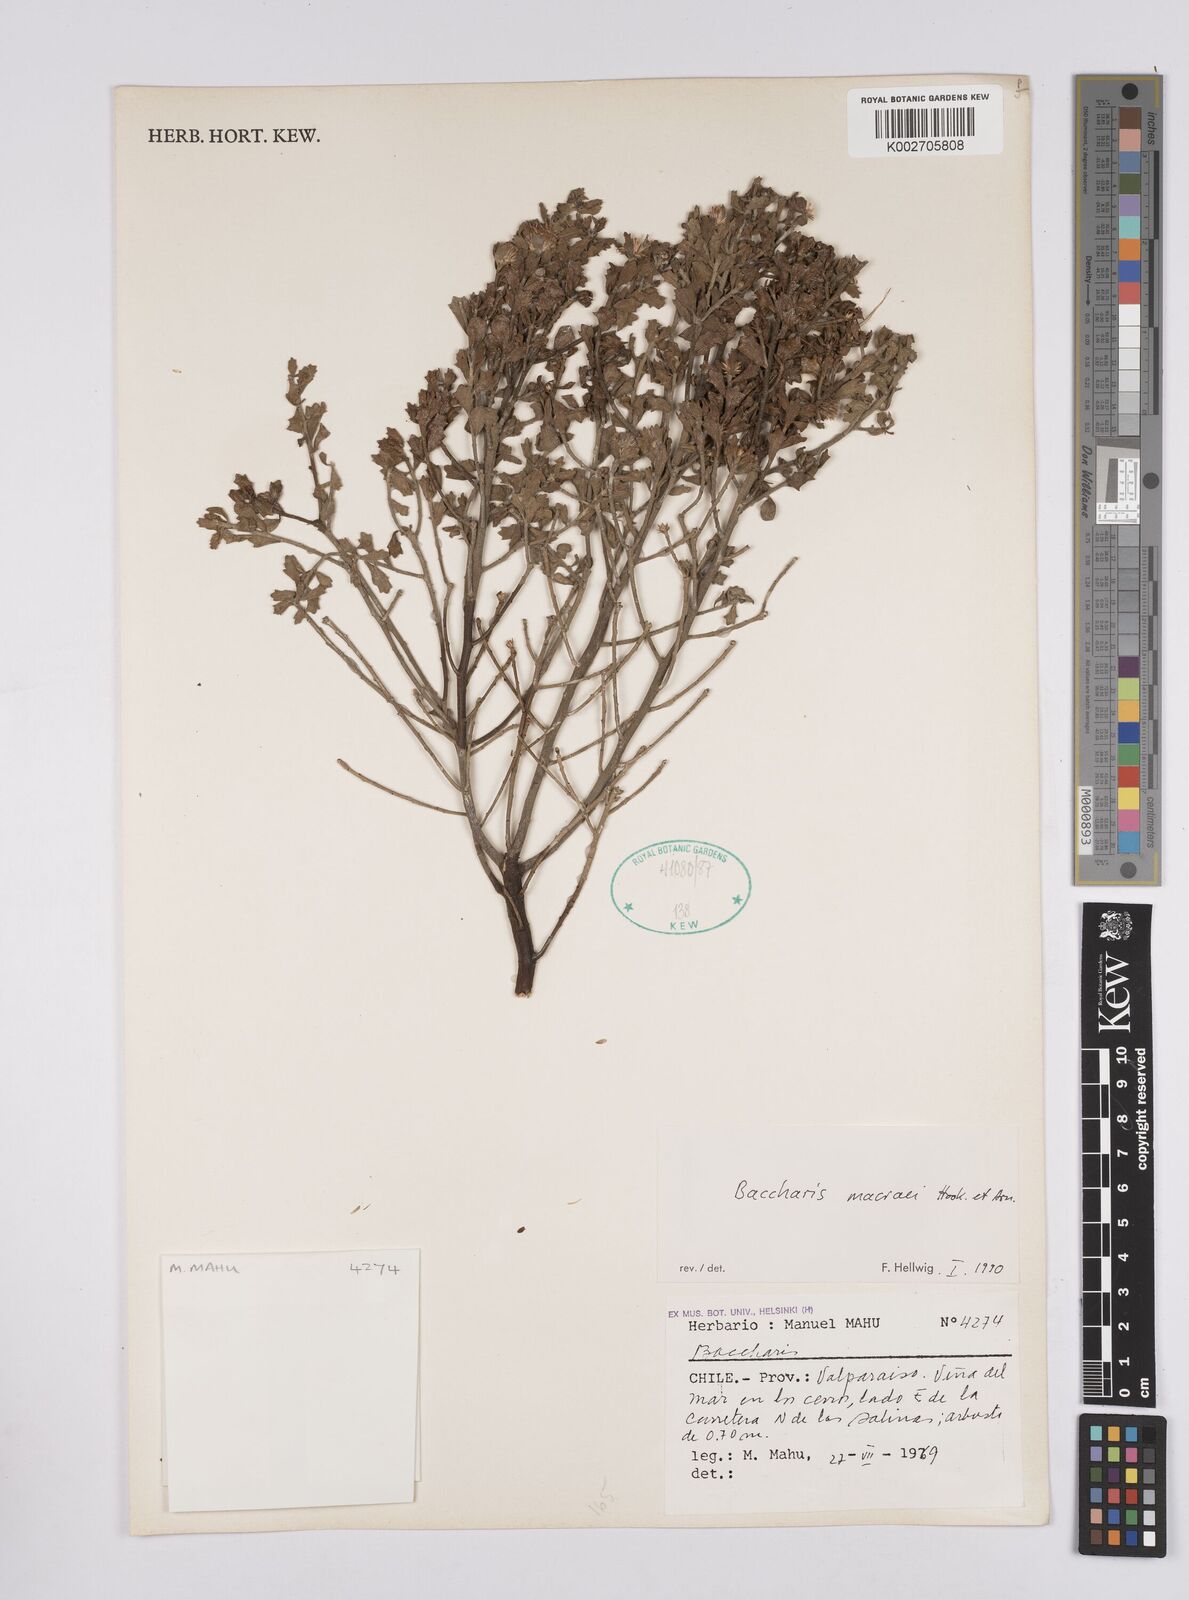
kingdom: Plantae
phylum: Tracheophyta
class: Magnoliopsida
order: Asterales
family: Asteraceae
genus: Baccharis
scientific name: Baccharis macraei
